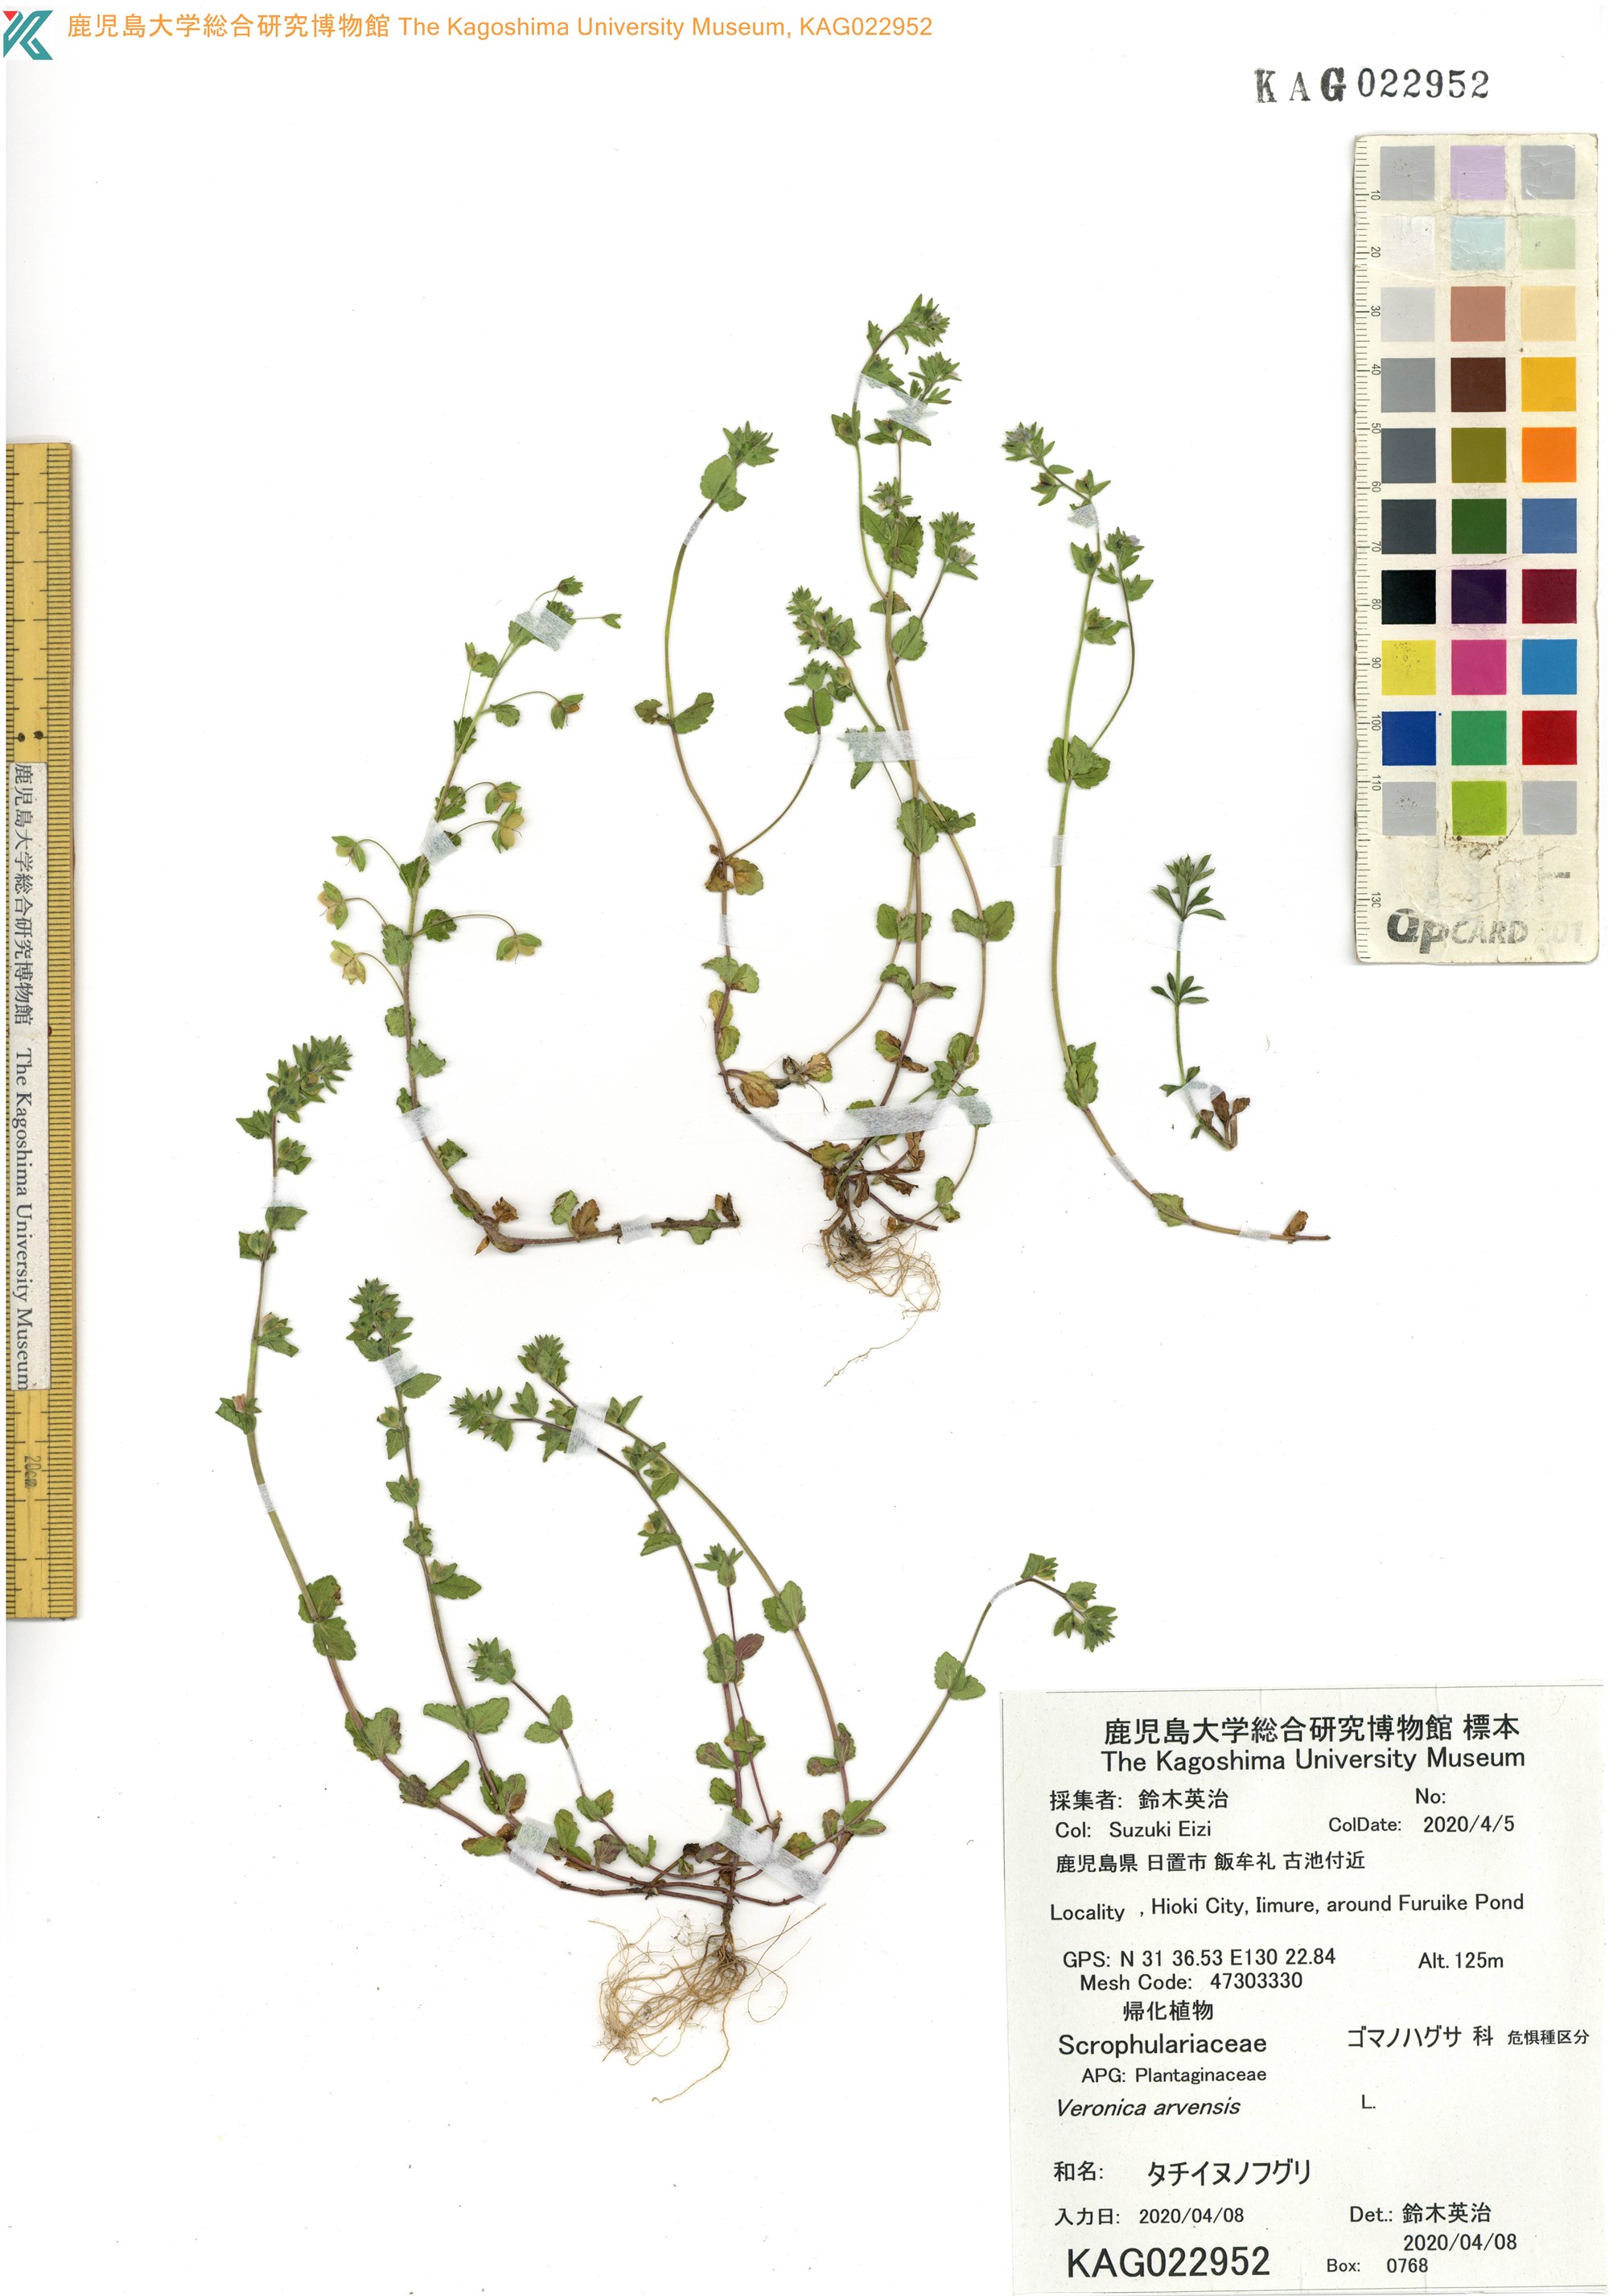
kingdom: Plantae
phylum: Tracheophyta
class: Magnoliopsida
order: Lamiales
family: Plantaginaceae
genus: Veronica
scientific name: Veronica arvensis
